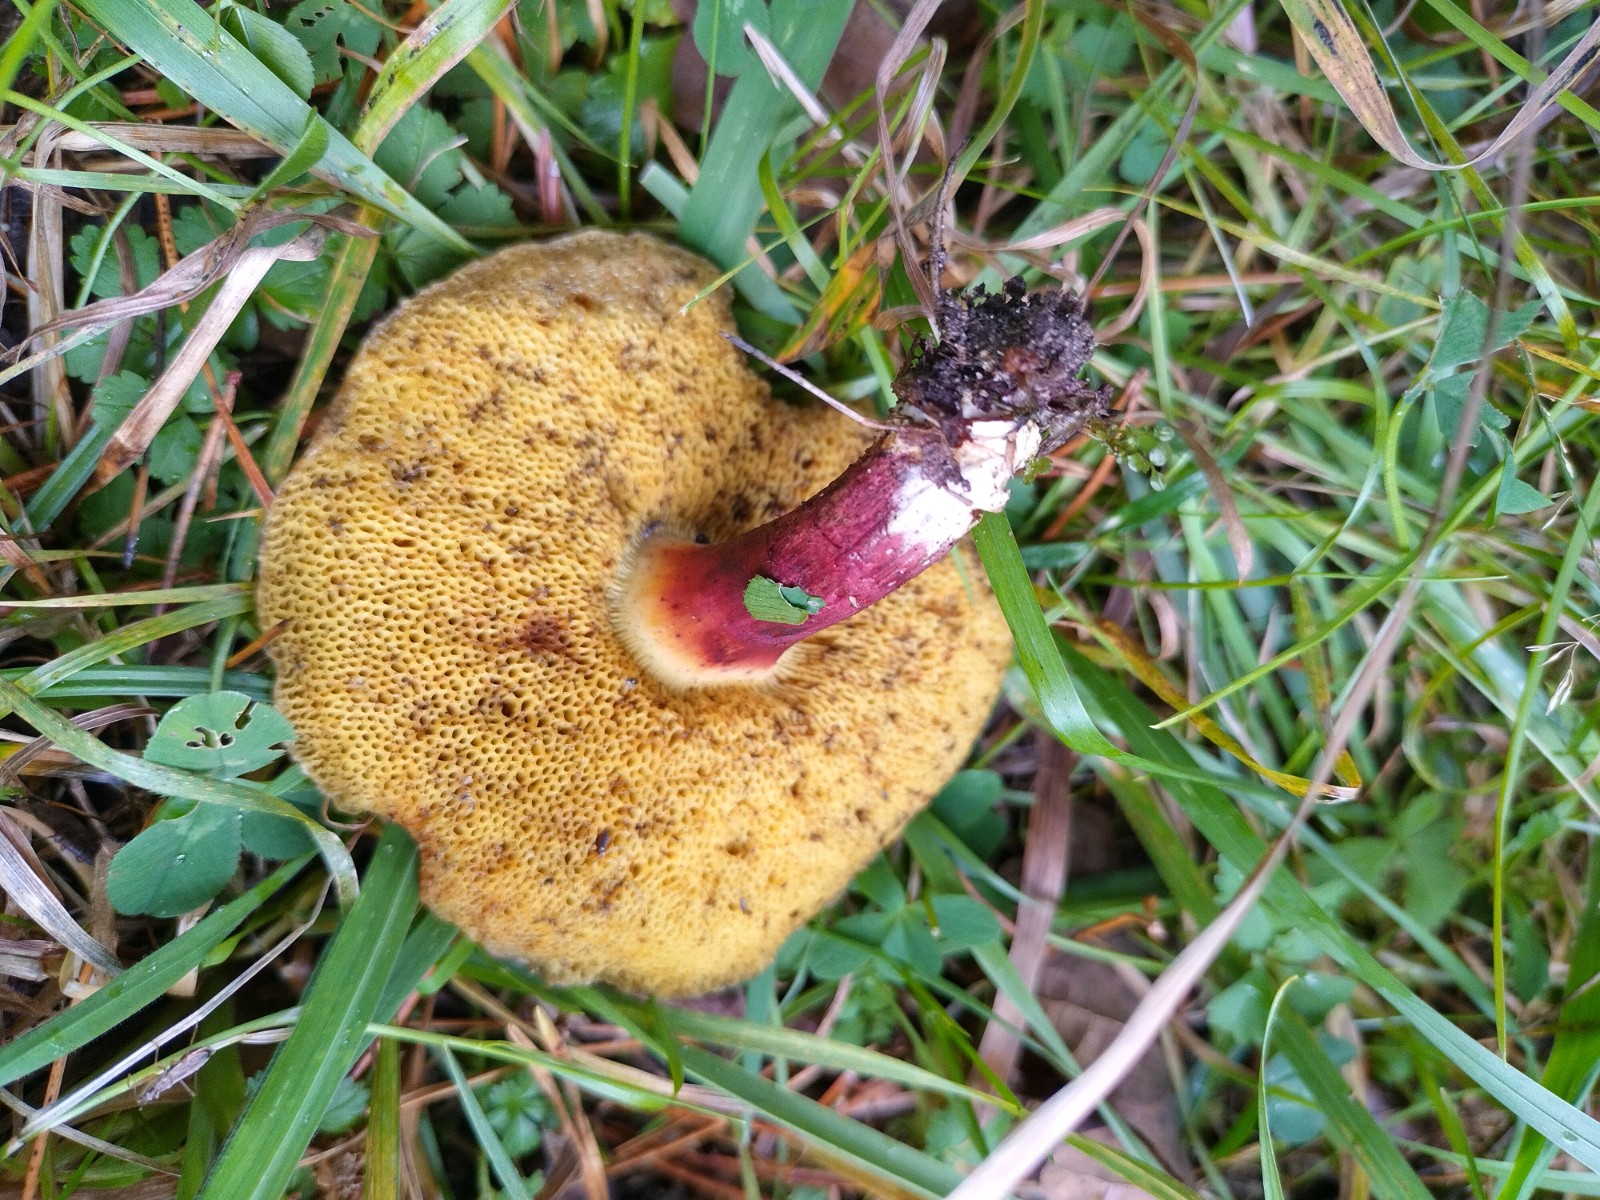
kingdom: Fungi
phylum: Basidiomycota
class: Agaricomycetes
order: Boletales
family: Boletaceae
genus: Xerocomellus
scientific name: Xerocomellus chrysenteron
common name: rødsprukken rørhat
